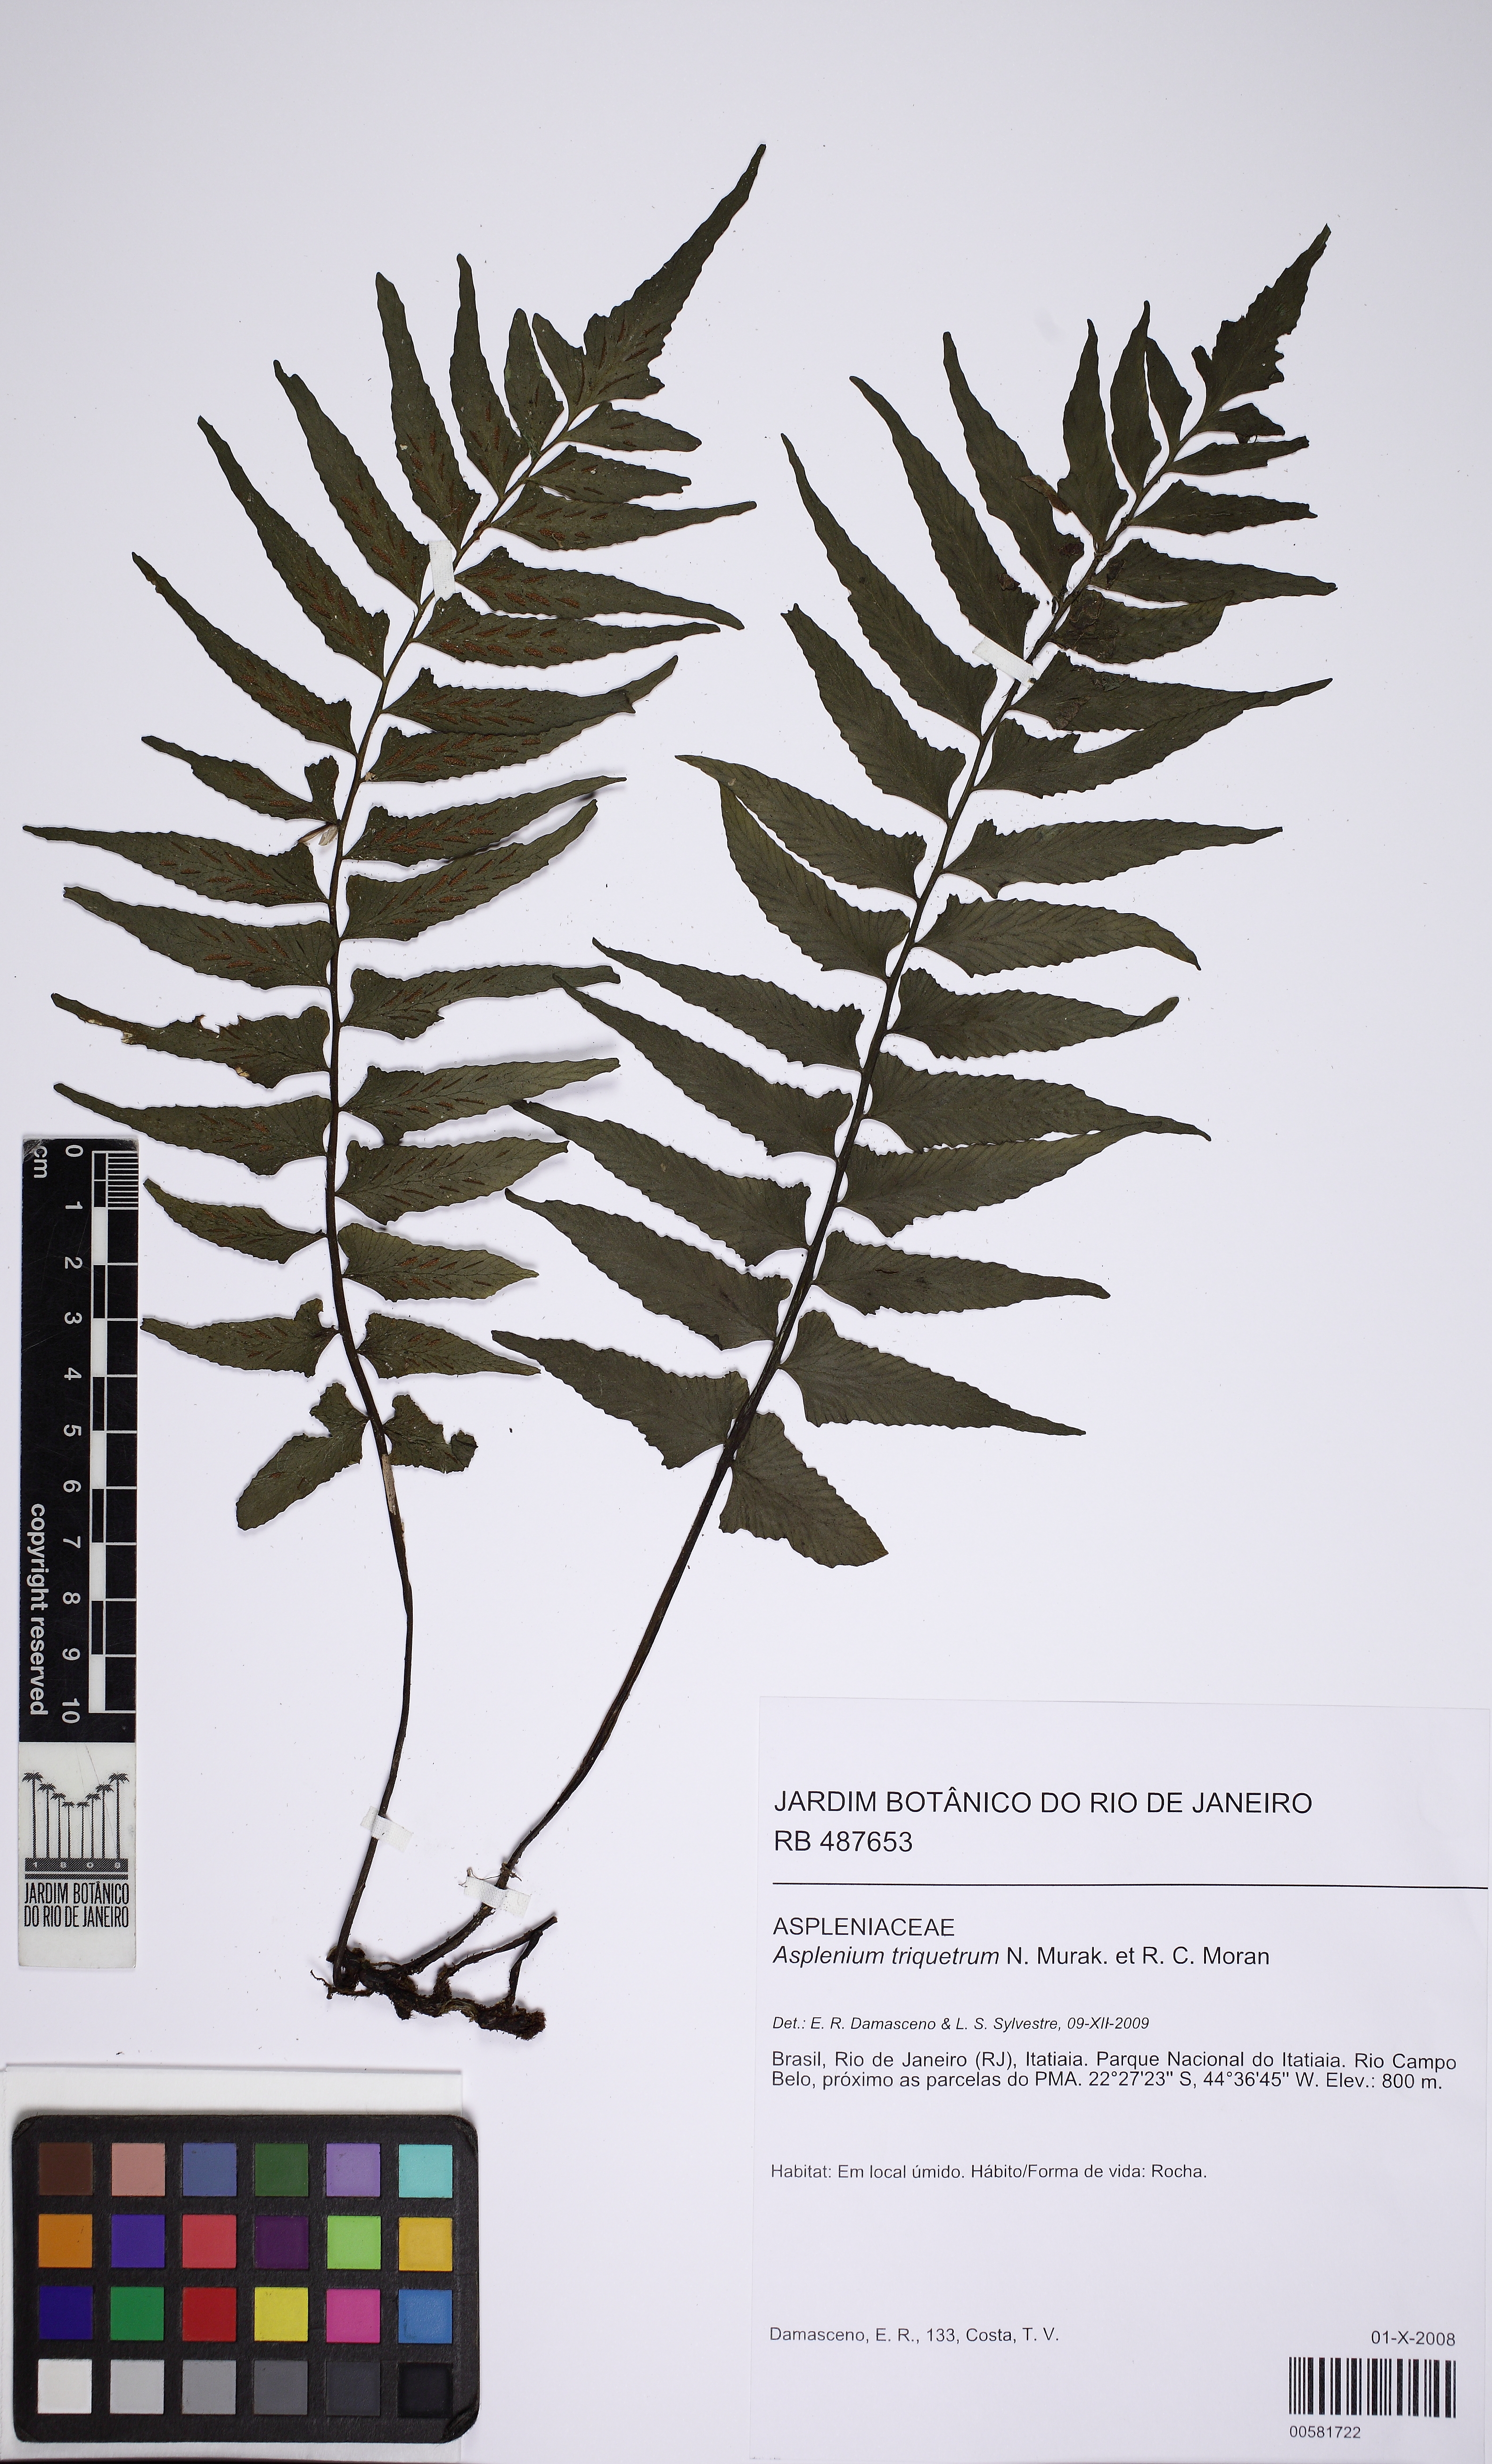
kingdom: Plantae
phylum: Tracheophyta
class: Polypodiopsida
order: Polypodiales
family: Aspleniaceae
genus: Hymenasplenium
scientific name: Hymenasplenium triquetrum
